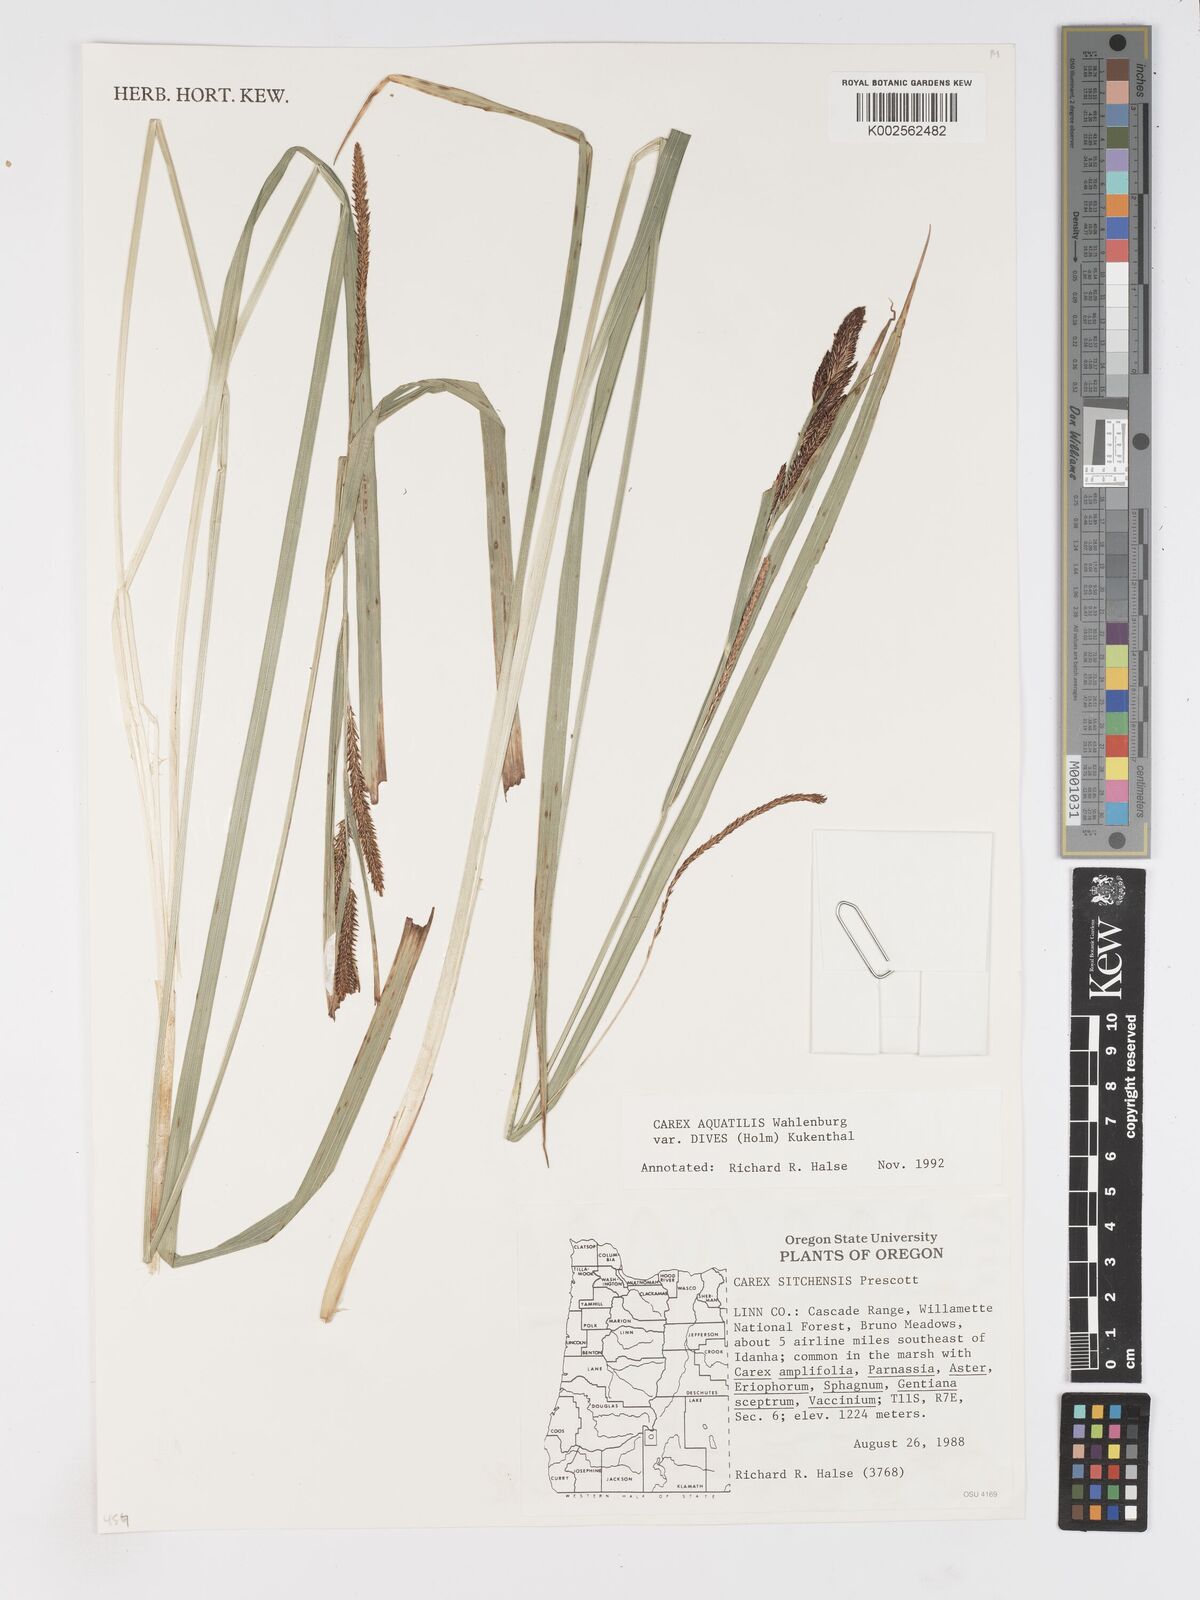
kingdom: Plantae
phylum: Tracheophyta
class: Liliopsida
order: Poales
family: Cyperaceae
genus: Carex
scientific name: Carex aquatilis
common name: Water sedge
